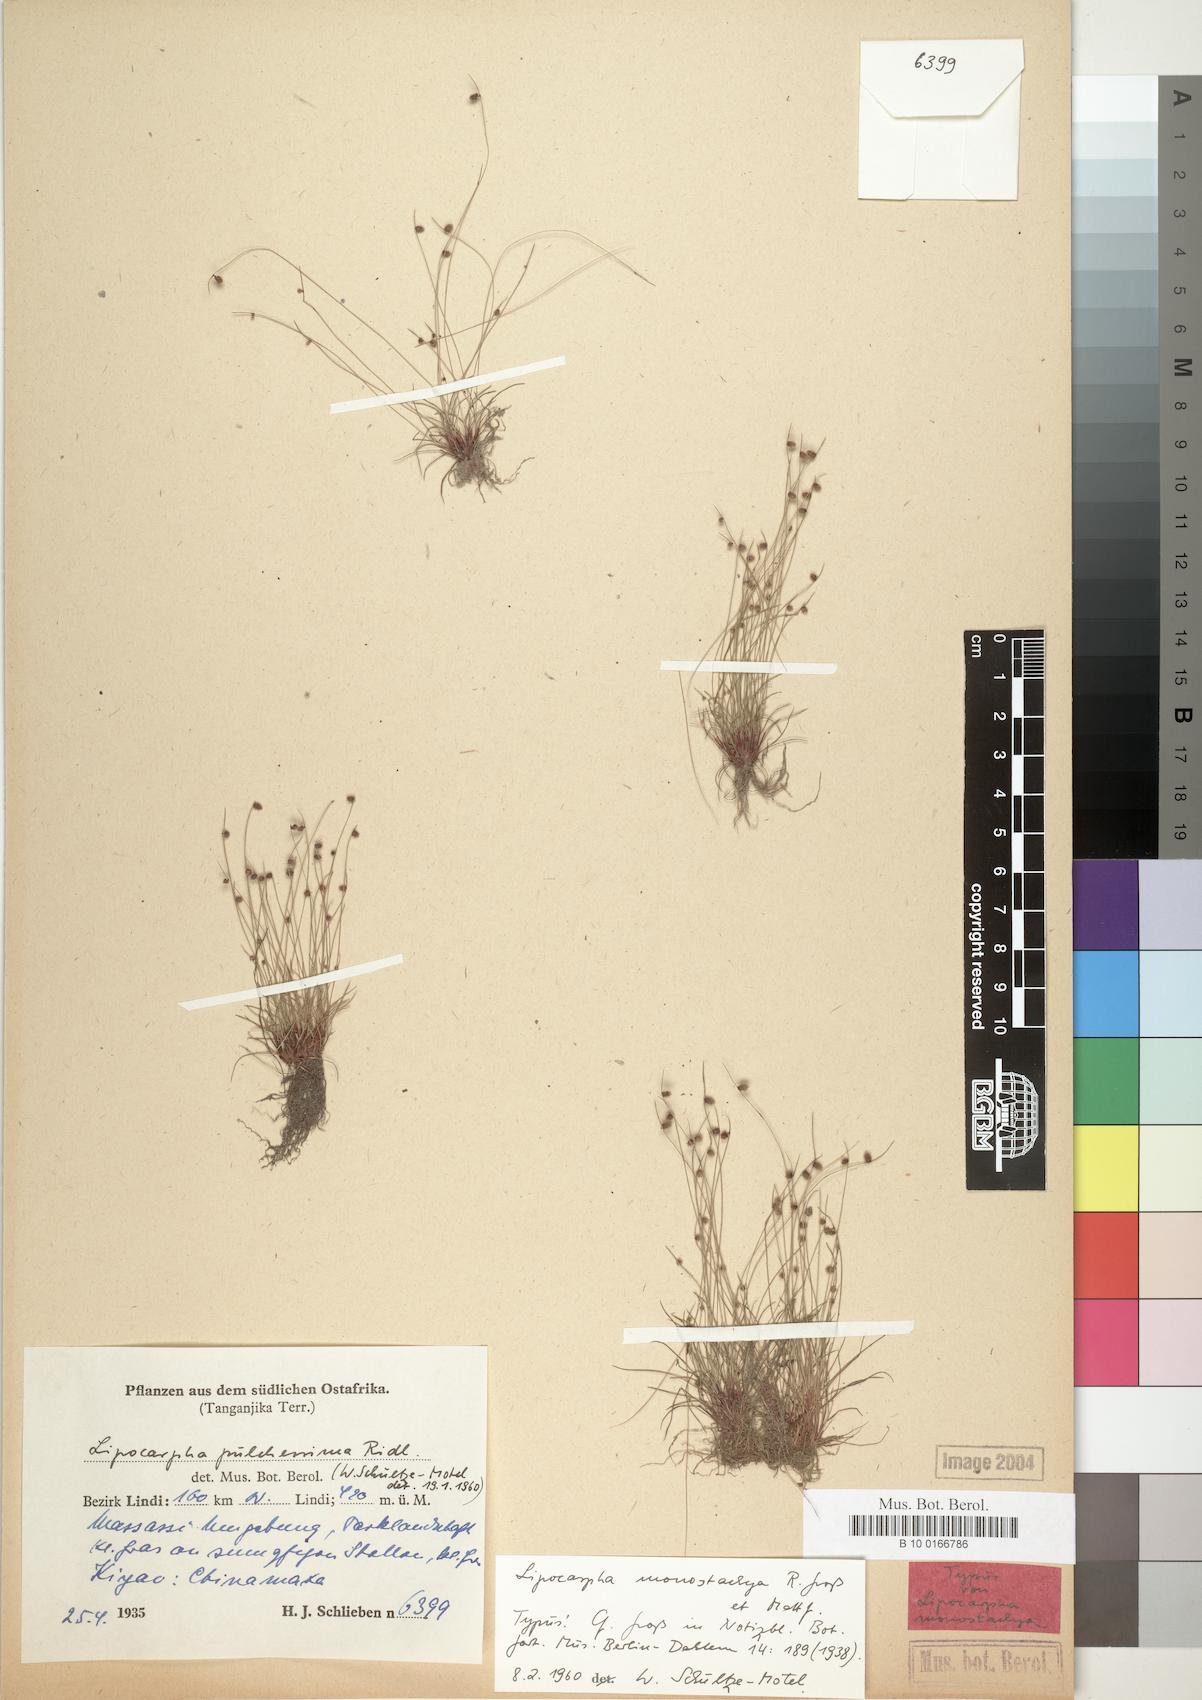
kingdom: Plantae
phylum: Tracheophyta
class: Liliopsida
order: Poales
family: Cyperaceae
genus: Cyperus
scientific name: Cyperus persquarrosus
